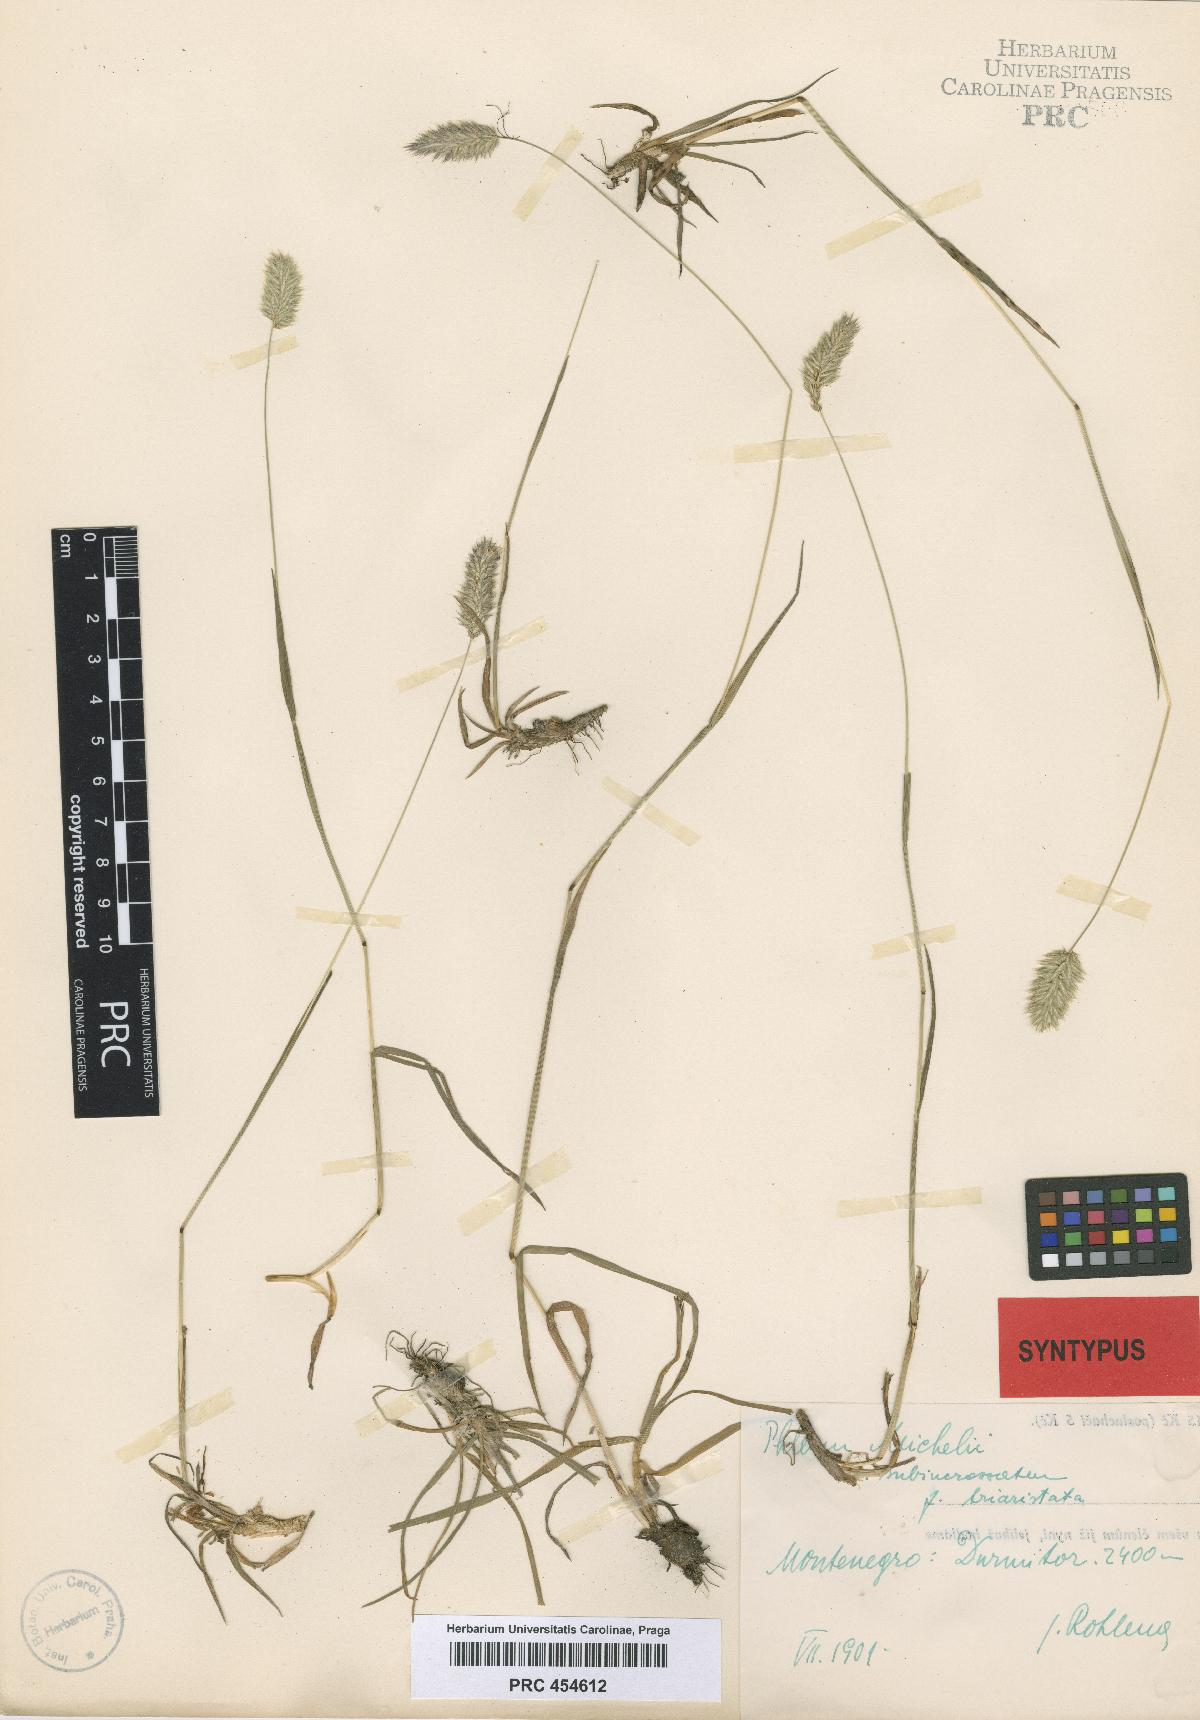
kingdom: Plantae
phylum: Tracheophyta
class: Liliopsida
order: Poales
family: Poaceae
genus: Phleum
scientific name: Phleum hirsutum
